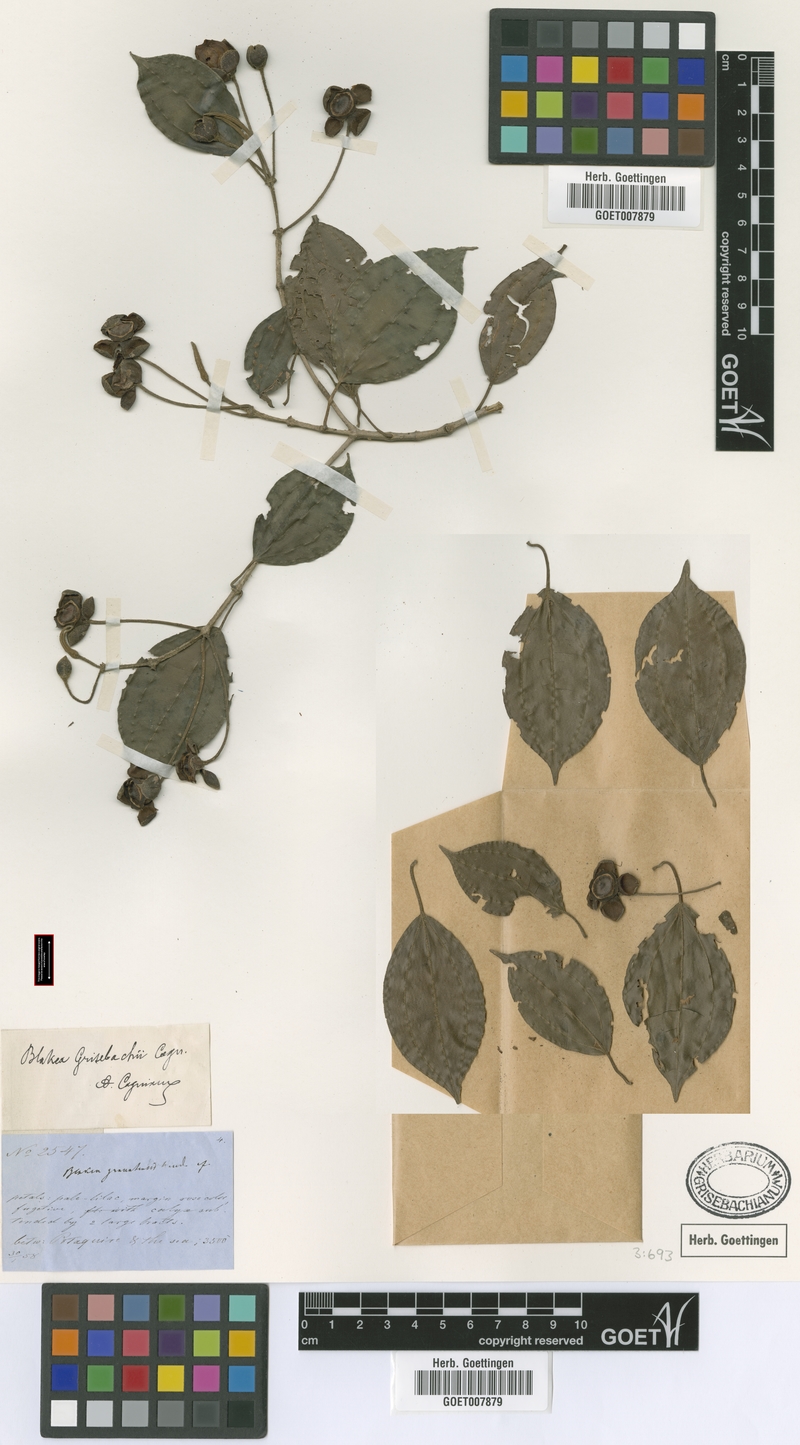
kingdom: Plantae
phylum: Tracheophyta
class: Magnoliopsida
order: Myrtales
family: Melastomataceae
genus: Blakea
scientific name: Blakea grisebachii
